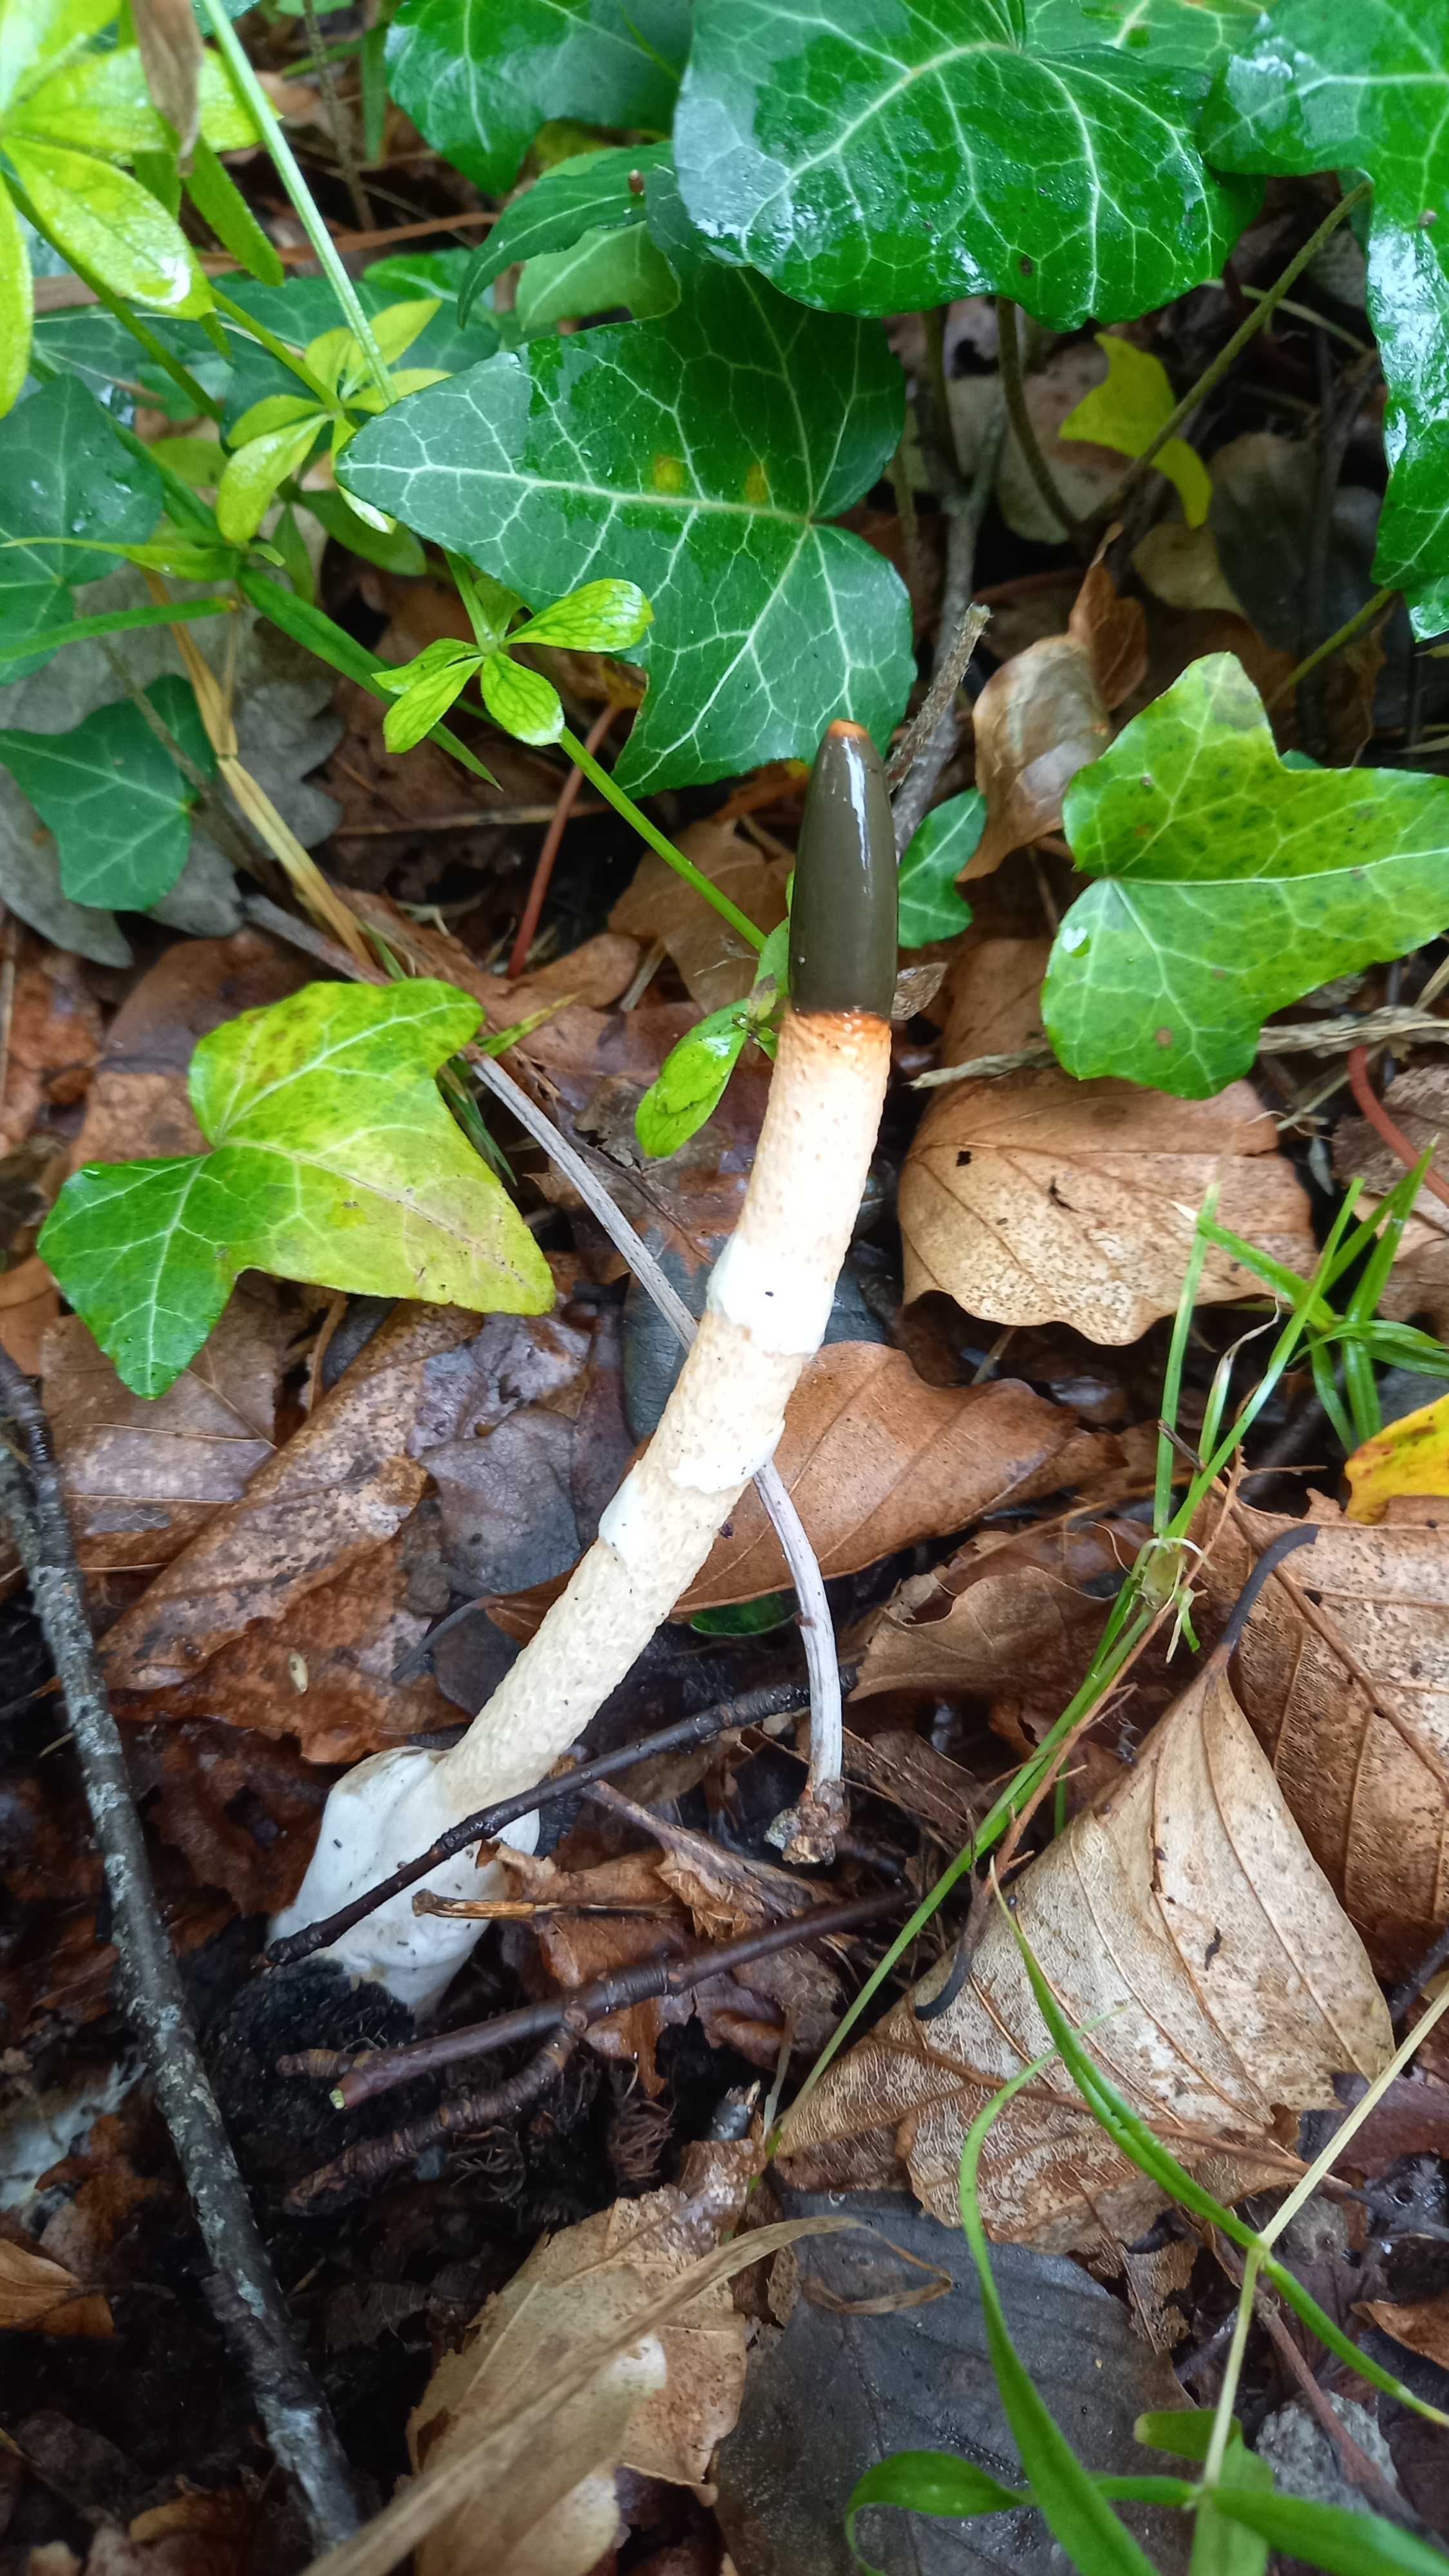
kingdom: Fungi
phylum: Basidiomycota
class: Agaricomycetes
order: Phallales
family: Phallaceae
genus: Mutinus
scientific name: Mutinus caninus
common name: hunde-stinksvamp
